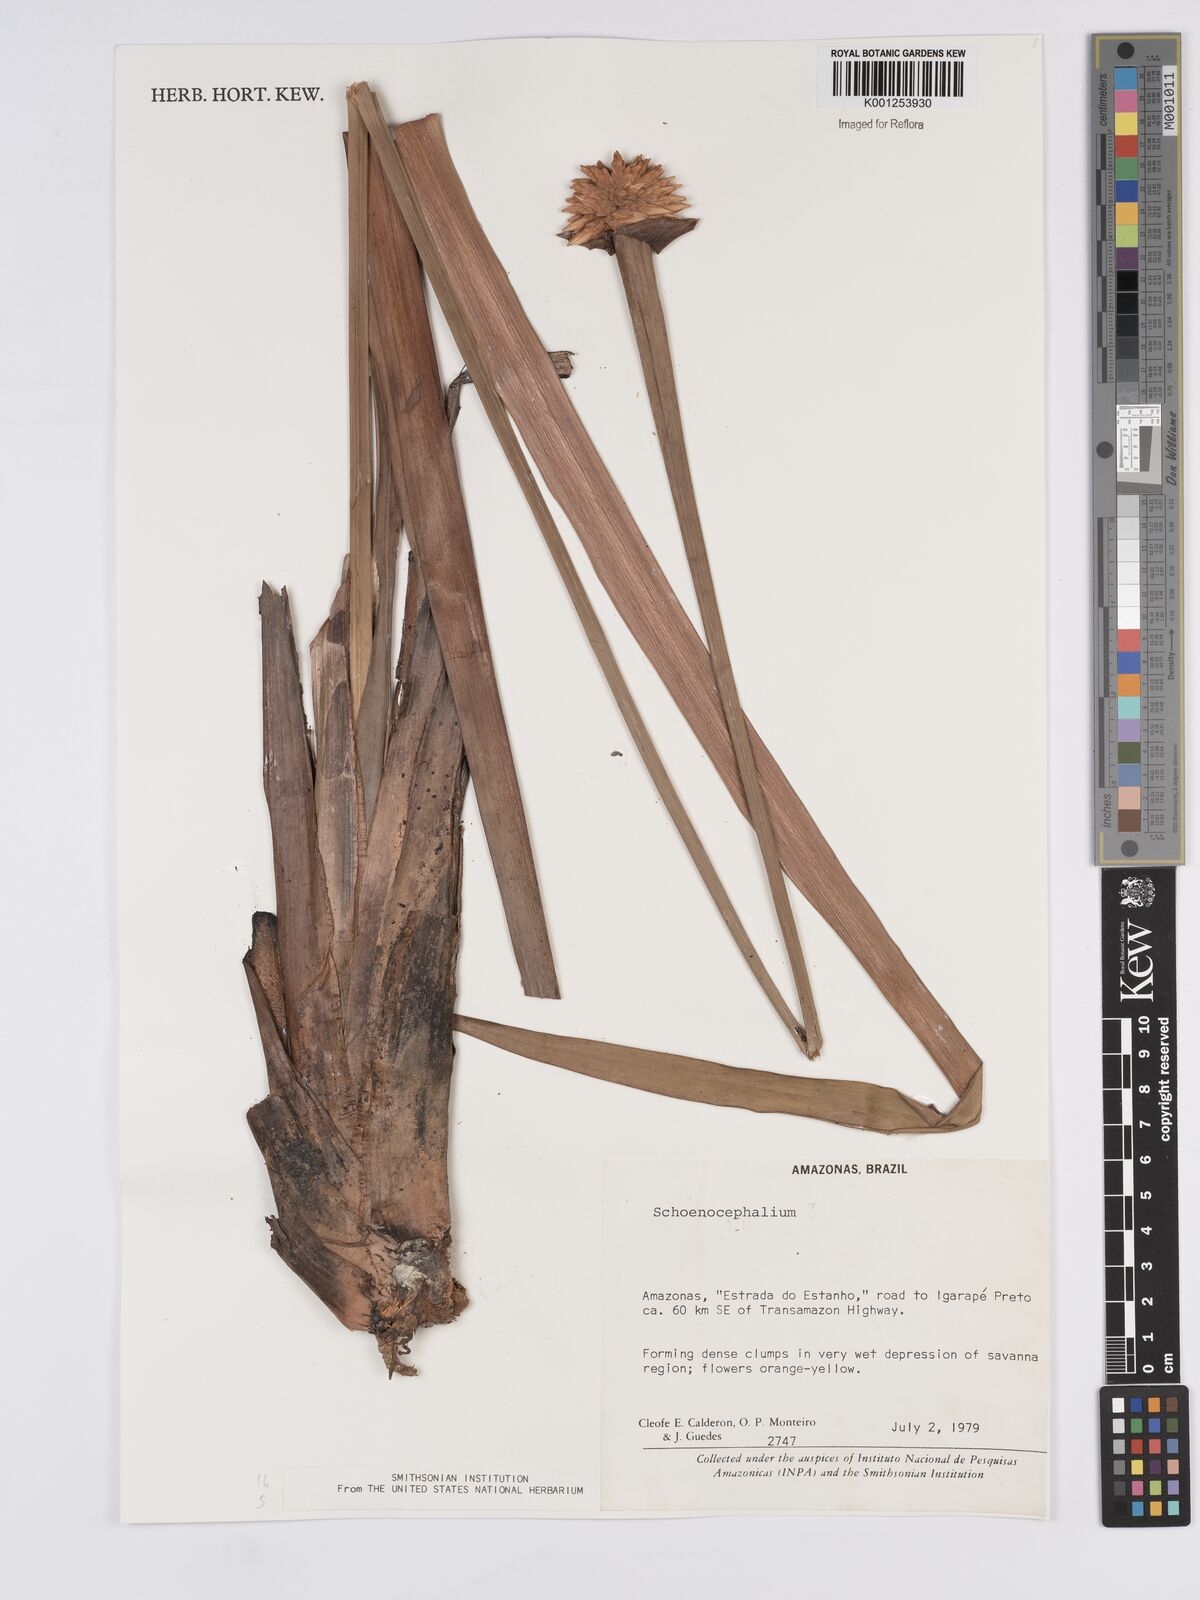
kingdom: Plantae
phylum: Tracheophyta
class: Liliopsida
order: Poales
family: Rapateaceae
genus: Schoenocephalium
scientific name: Schoenocephalium
